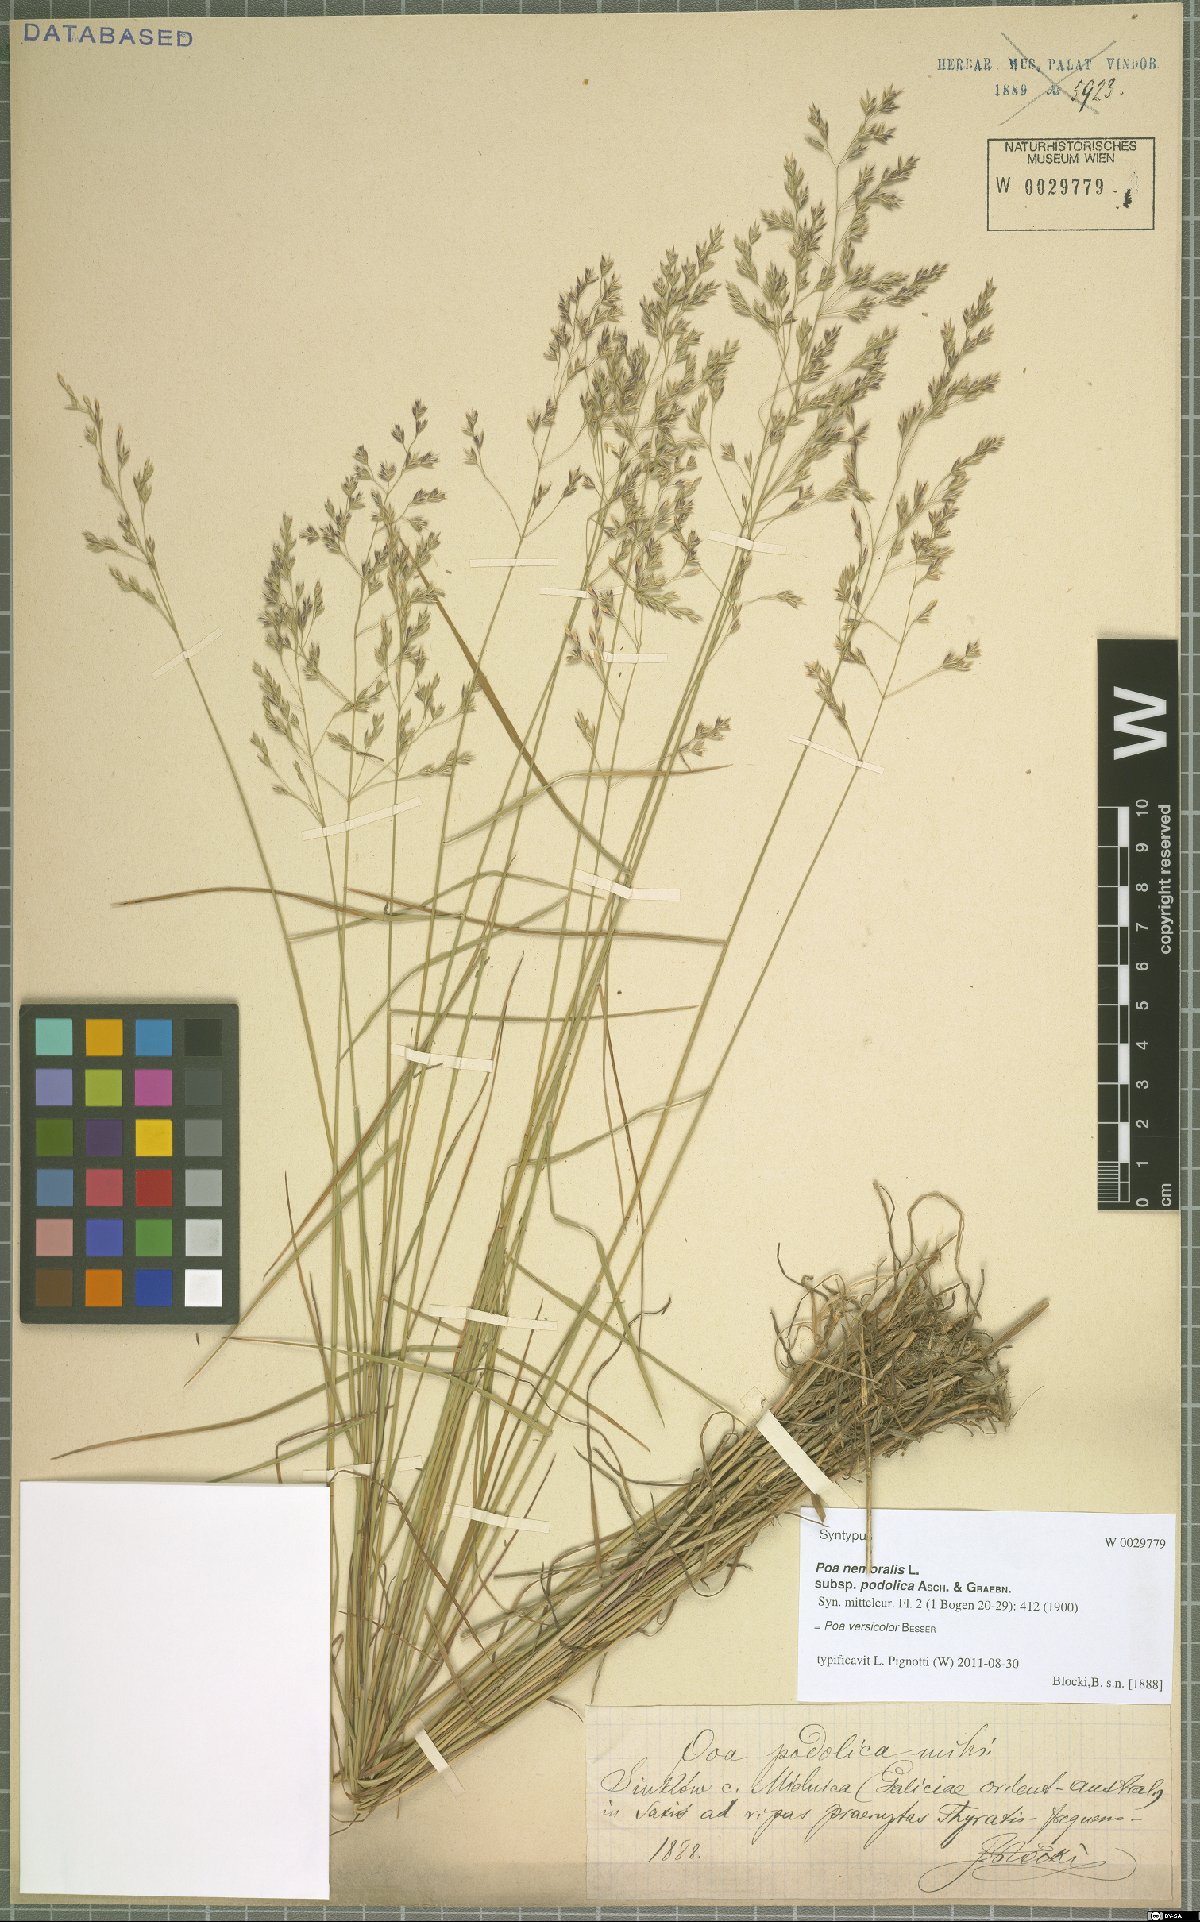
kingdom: Plantae
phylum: Tracheophyta
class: Liliopsida
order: Poales
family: Poaceae
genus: Poa
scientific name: Poa versicolor
